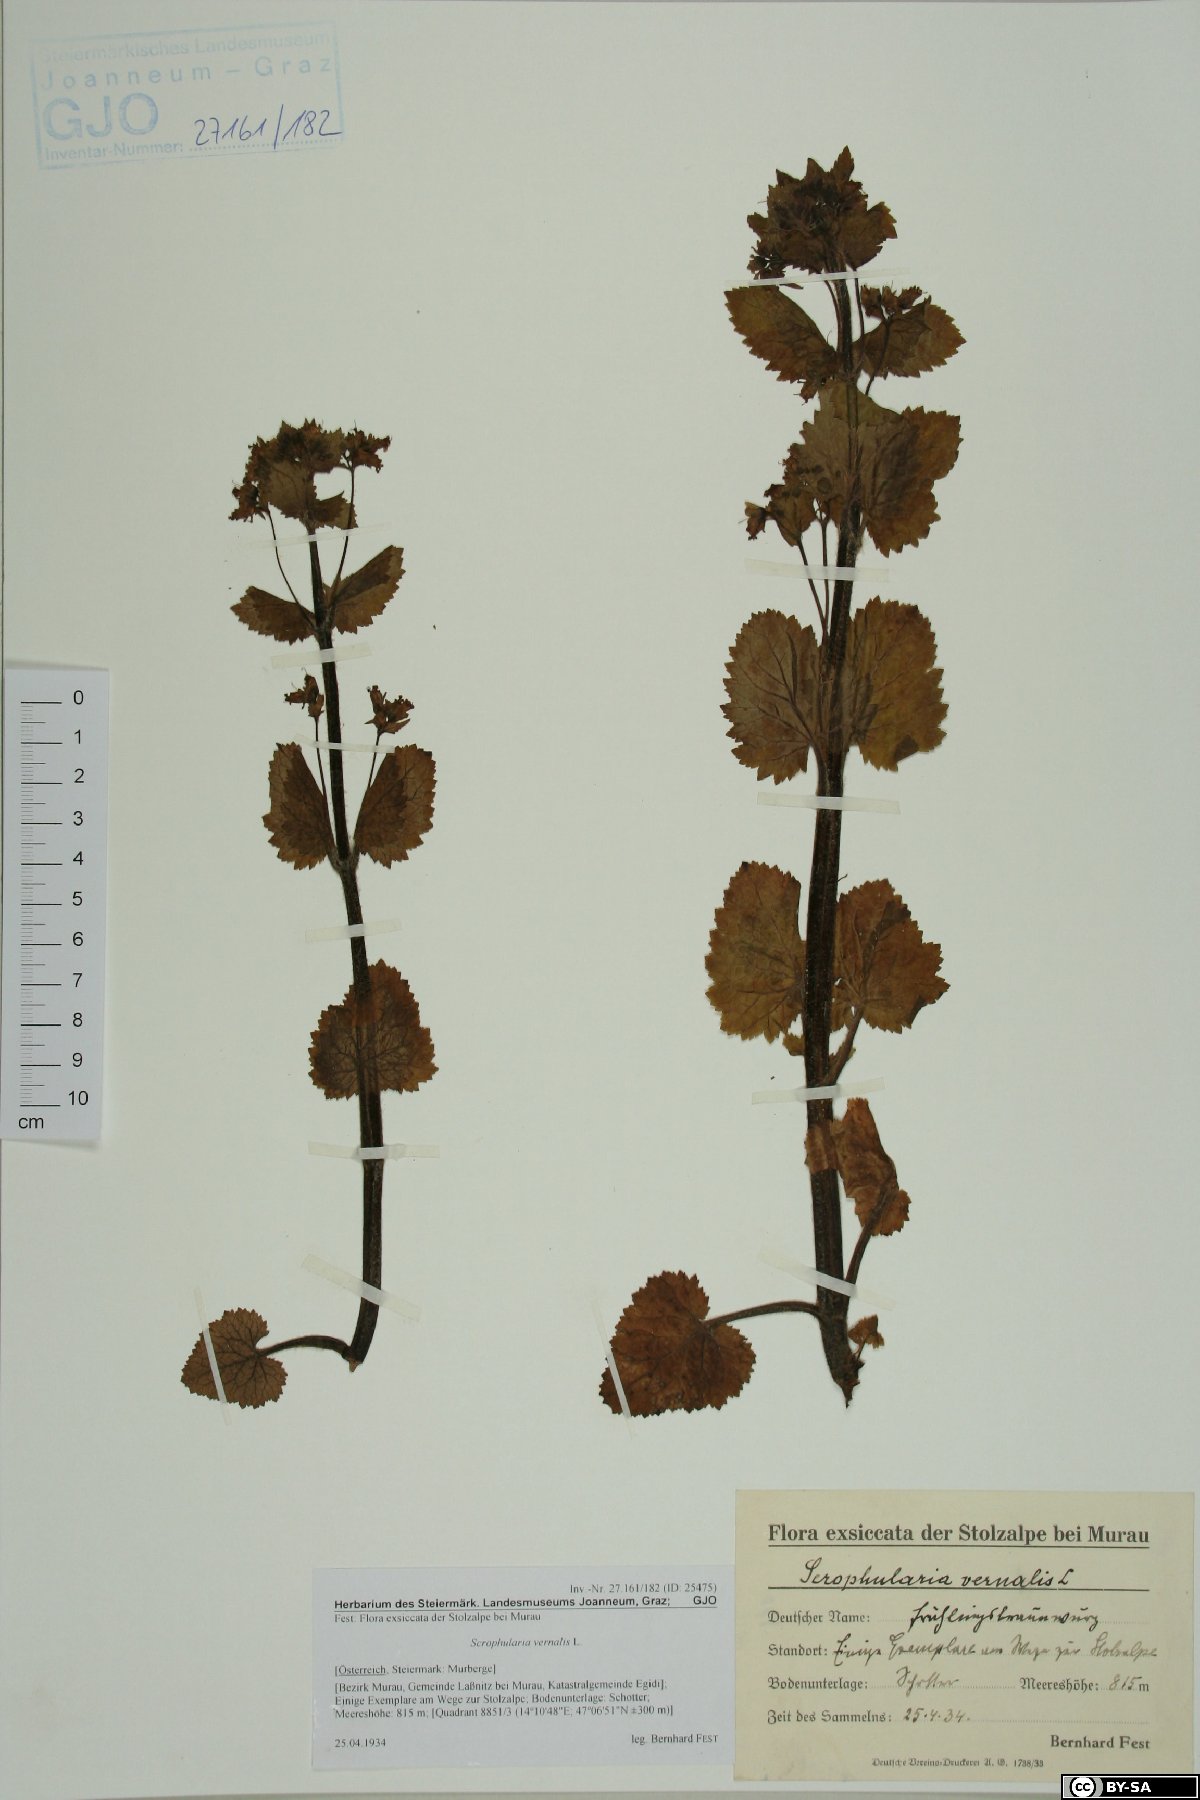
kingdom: Plantae
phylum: Tracheophyta
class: Magnoliopsida
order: Lamiales
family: Scrophulariaceae
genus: Scrophularia
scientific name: Scrophularia vernalis
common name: Yellow figwort
